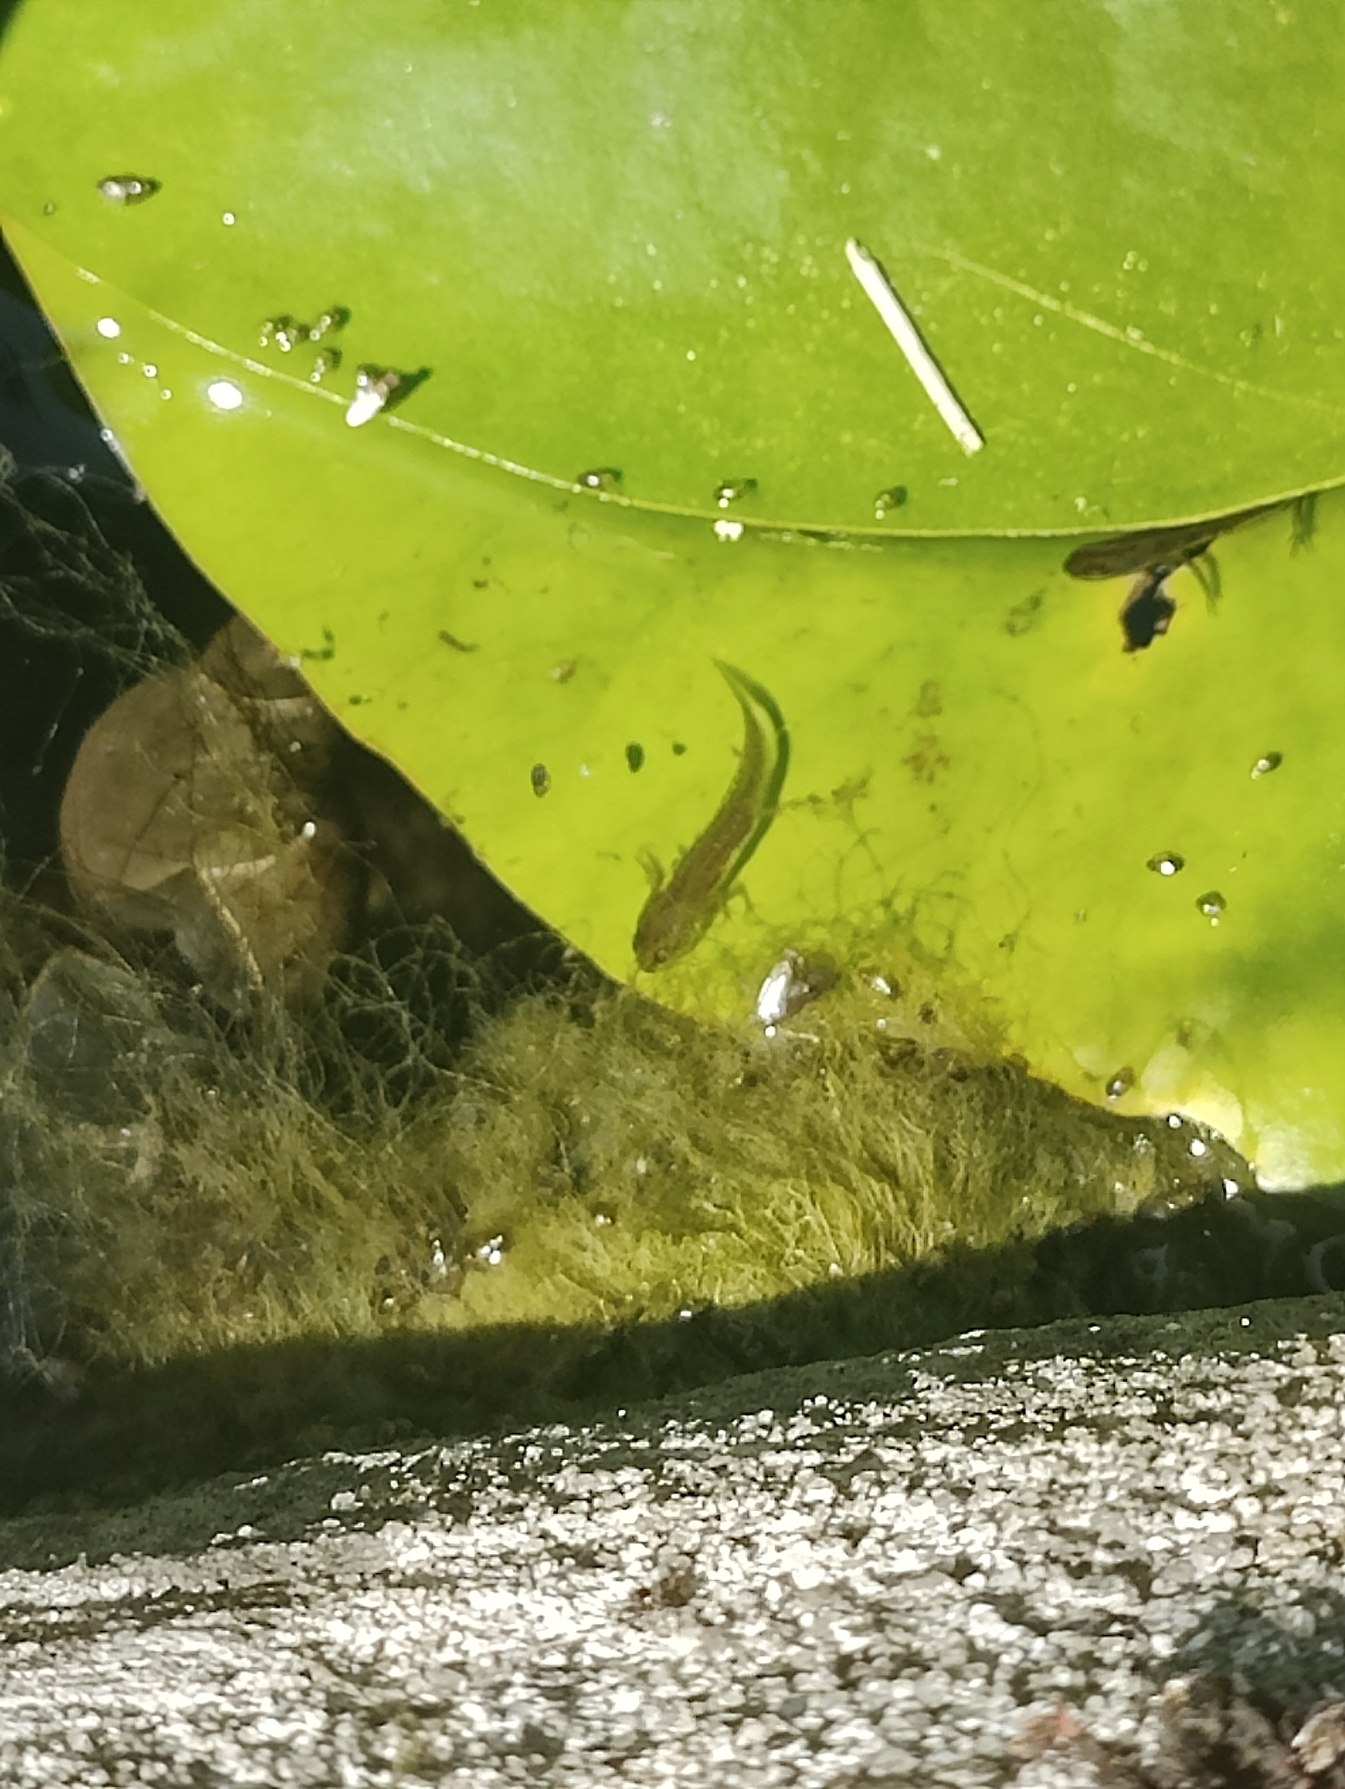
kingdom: Animalia
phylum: Chordata
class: Amphibia
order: Caudata
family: Salamandridae
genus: Lissotriton
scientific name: Lissotriton vulgaris
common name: Lille vandsalamander
